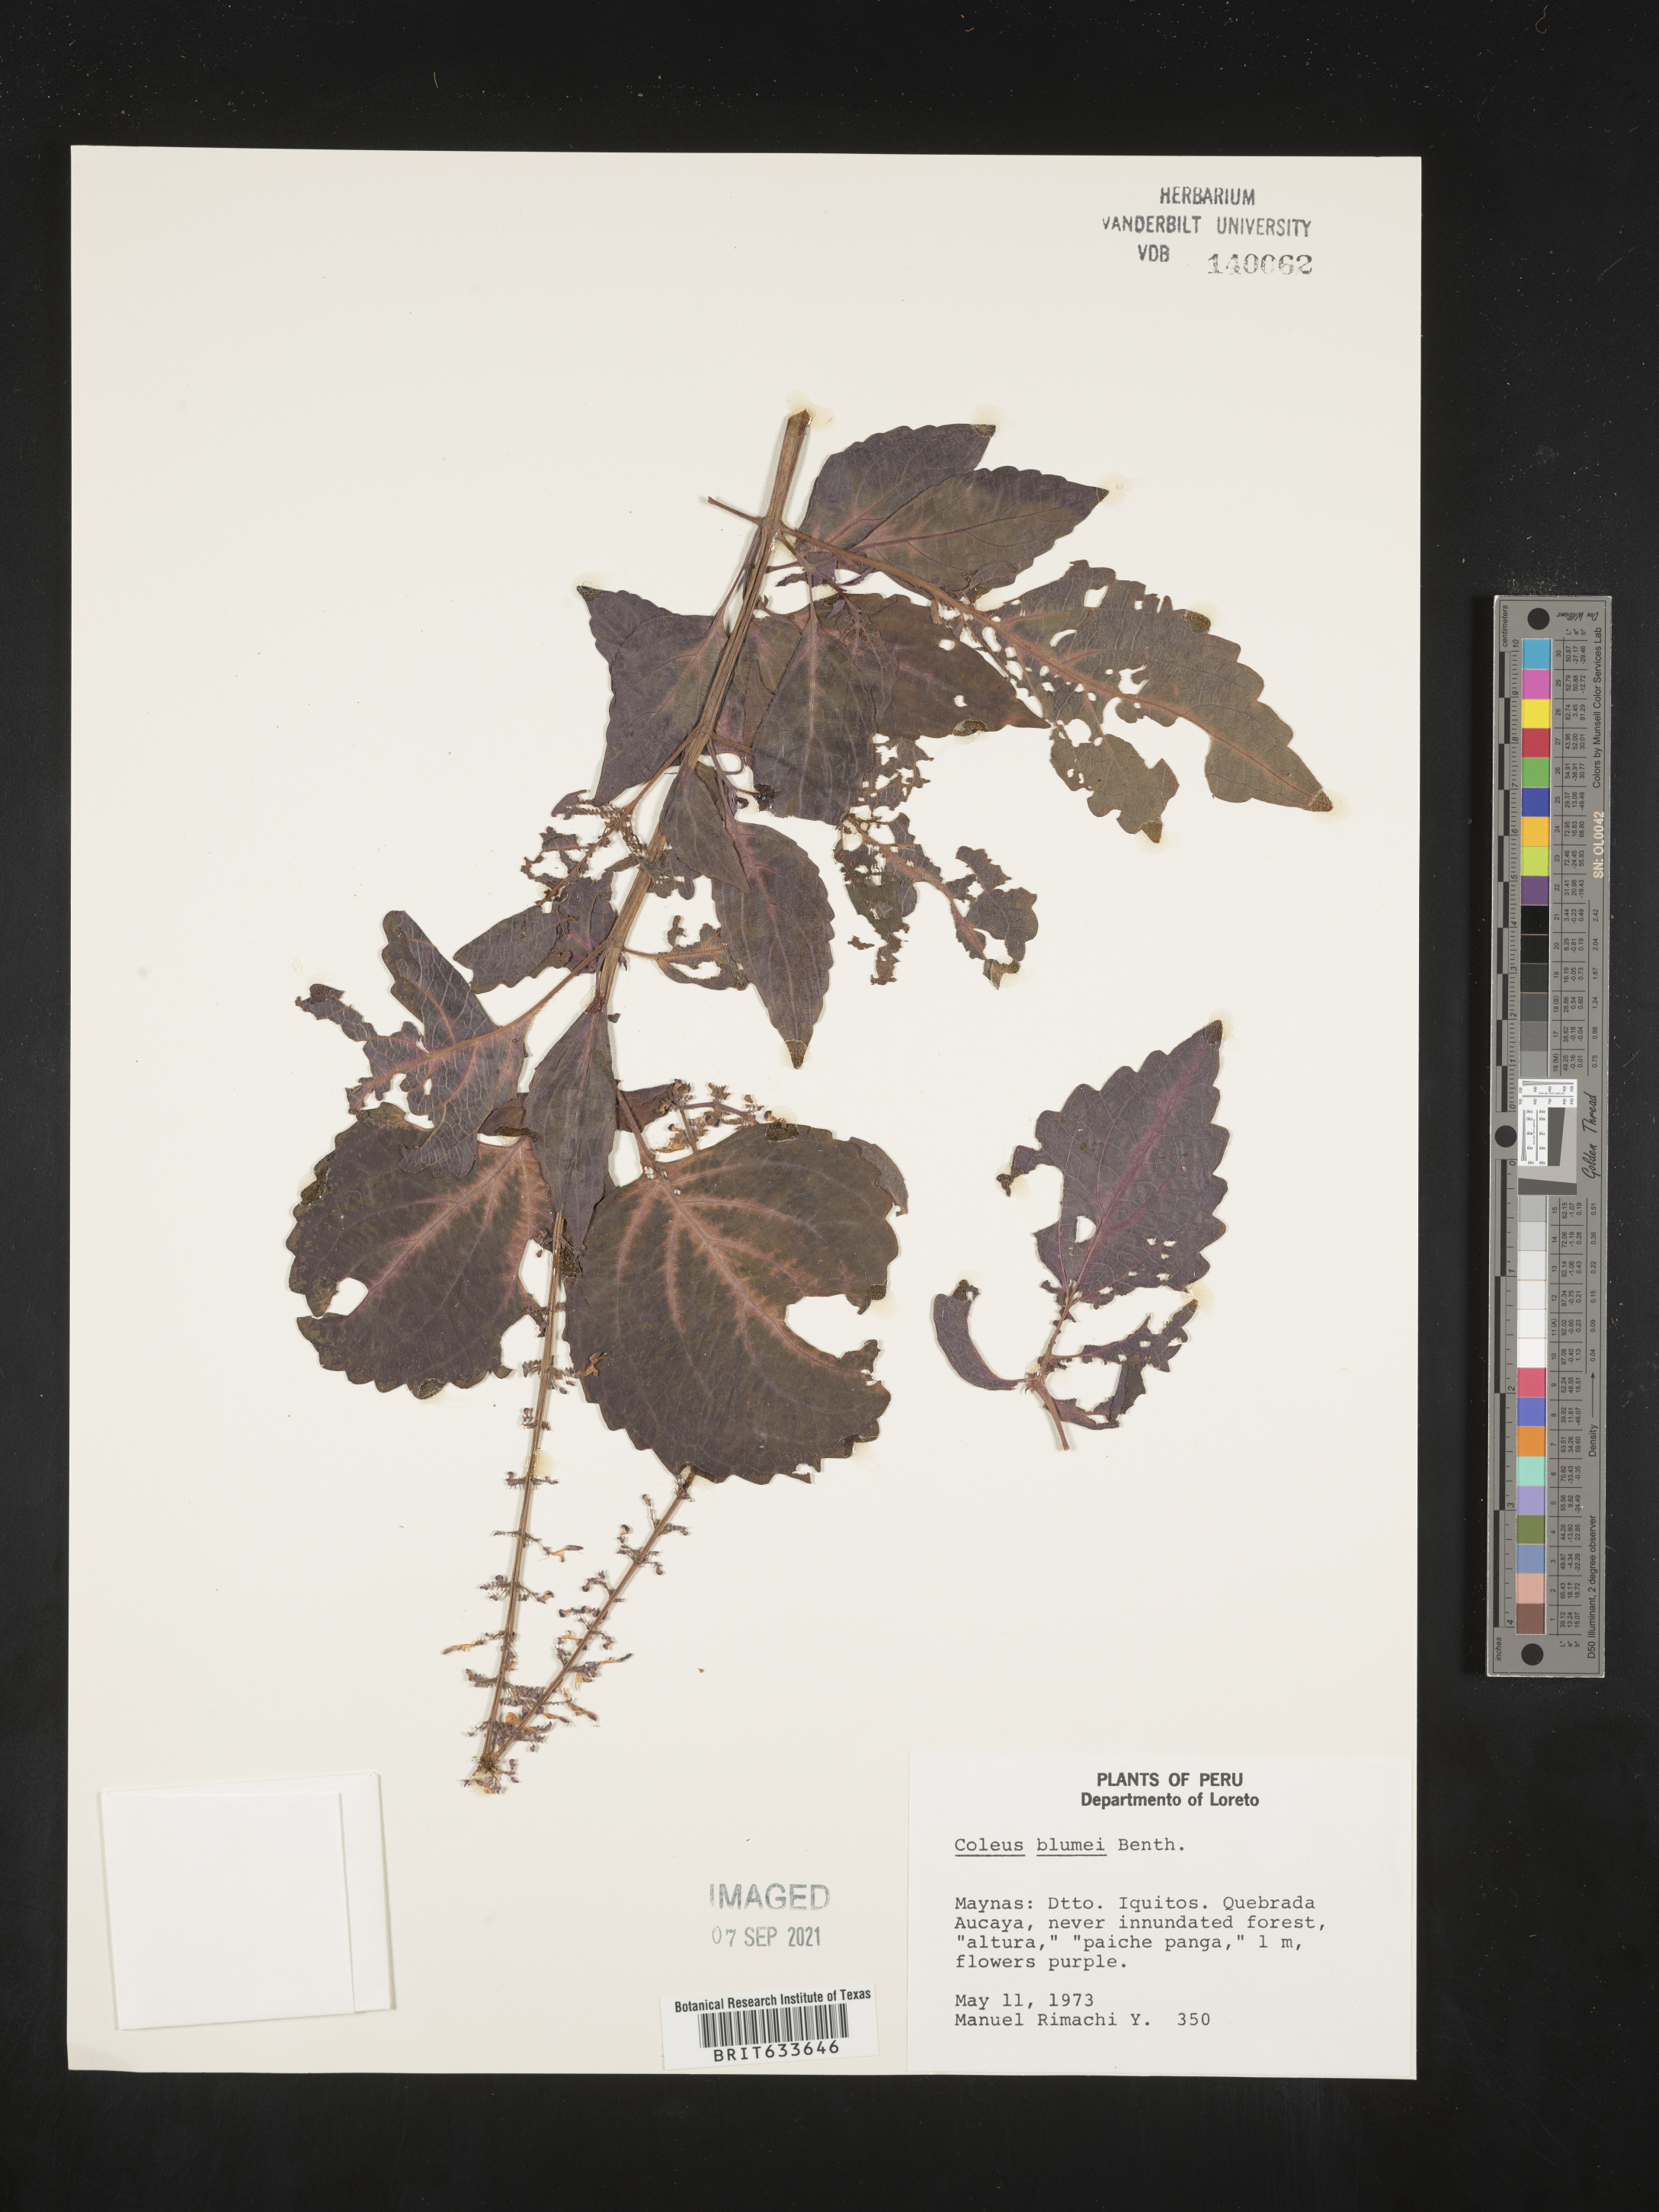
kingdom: Plantae
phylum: Tracheophyta
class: Magnoliopsida
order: Lamiales
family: Lamiaceae
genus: Coleus
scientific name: Coleus scutellarioides
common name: Coleus
